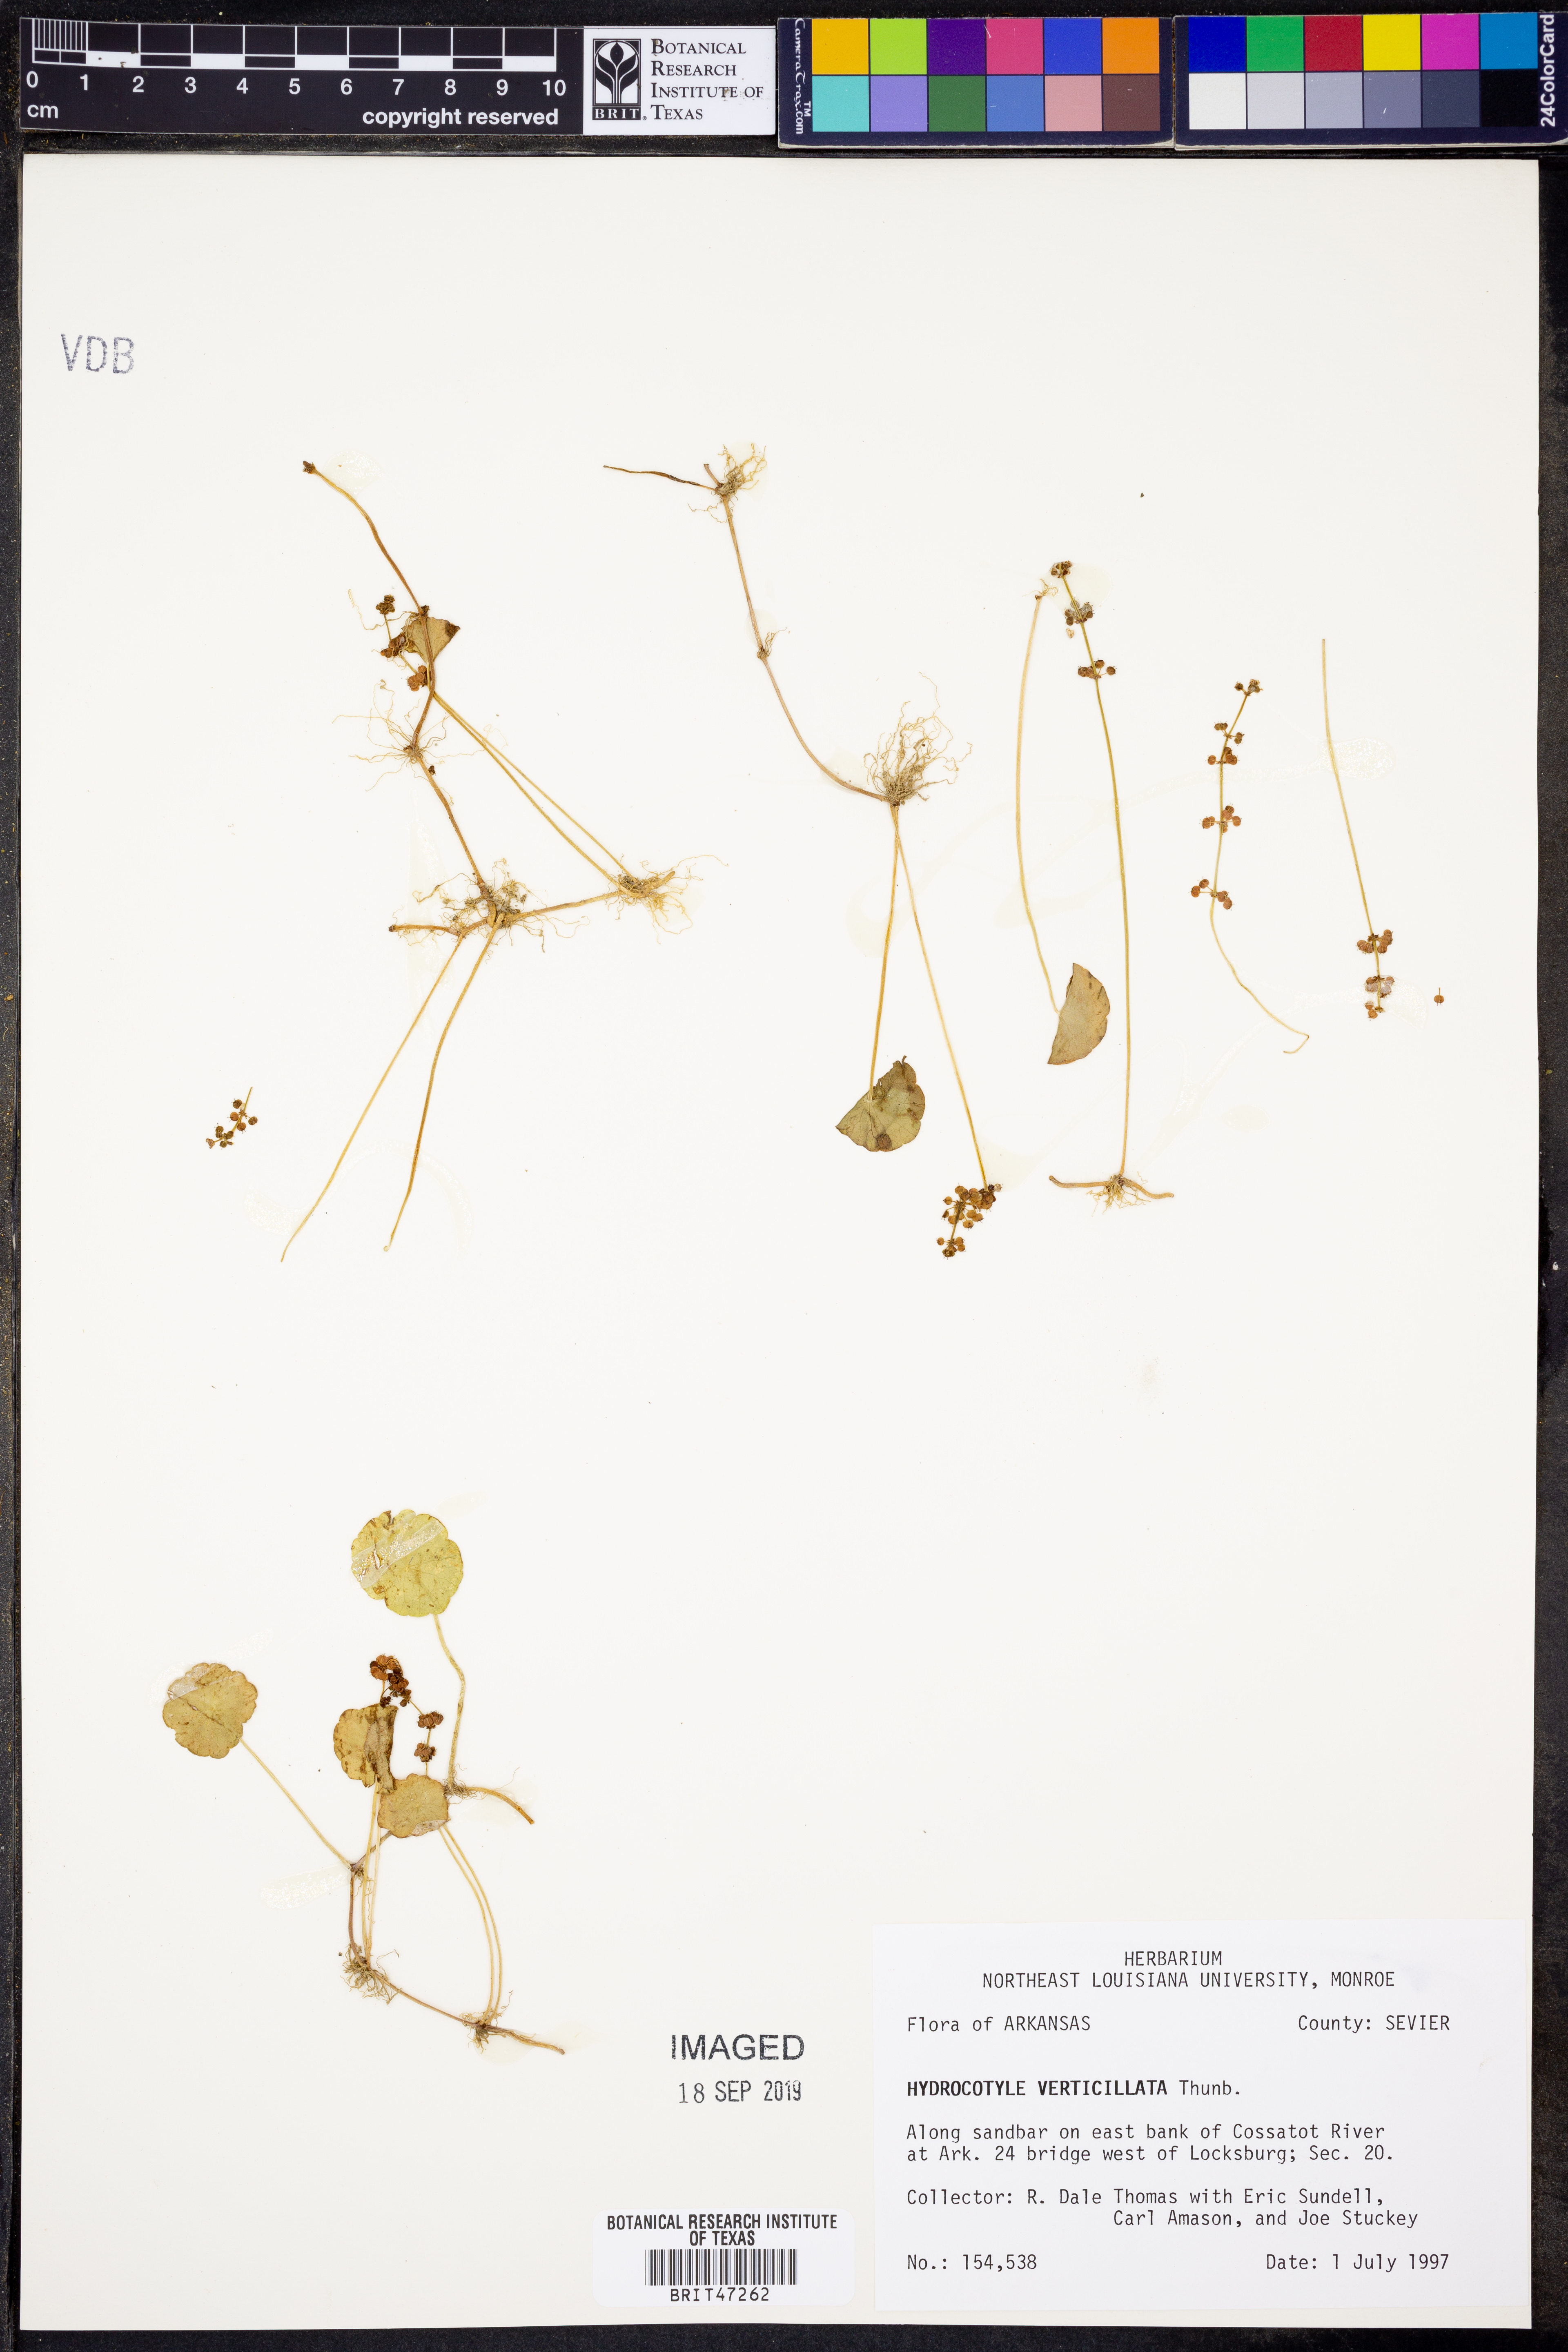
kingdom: Plantae
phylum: Tracheophyta
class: Magnoliopsida
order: Apiales
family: Araliaceae
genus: Hydrocotyle
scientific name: Hydrocotyle verticillata
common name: Whorled marshpennywort
